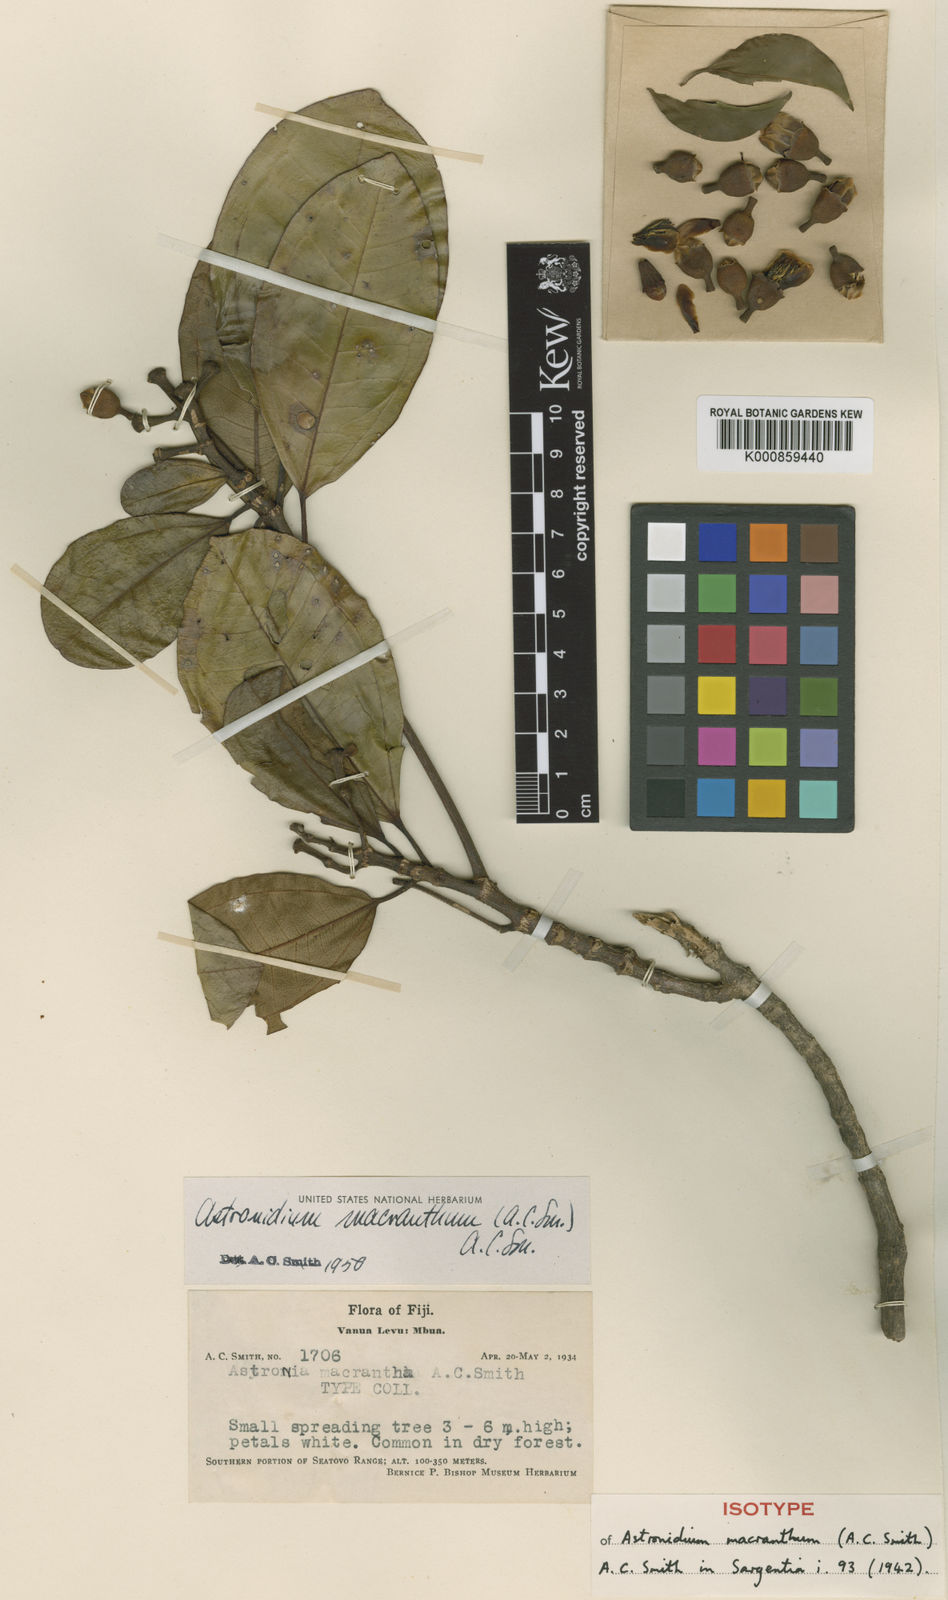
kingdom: Plantae
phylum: Tracheophyta
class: Magnoliopsida
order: Myrtales
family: Melastomataceae
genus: Astronidium
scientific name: Astronidium macranthum
